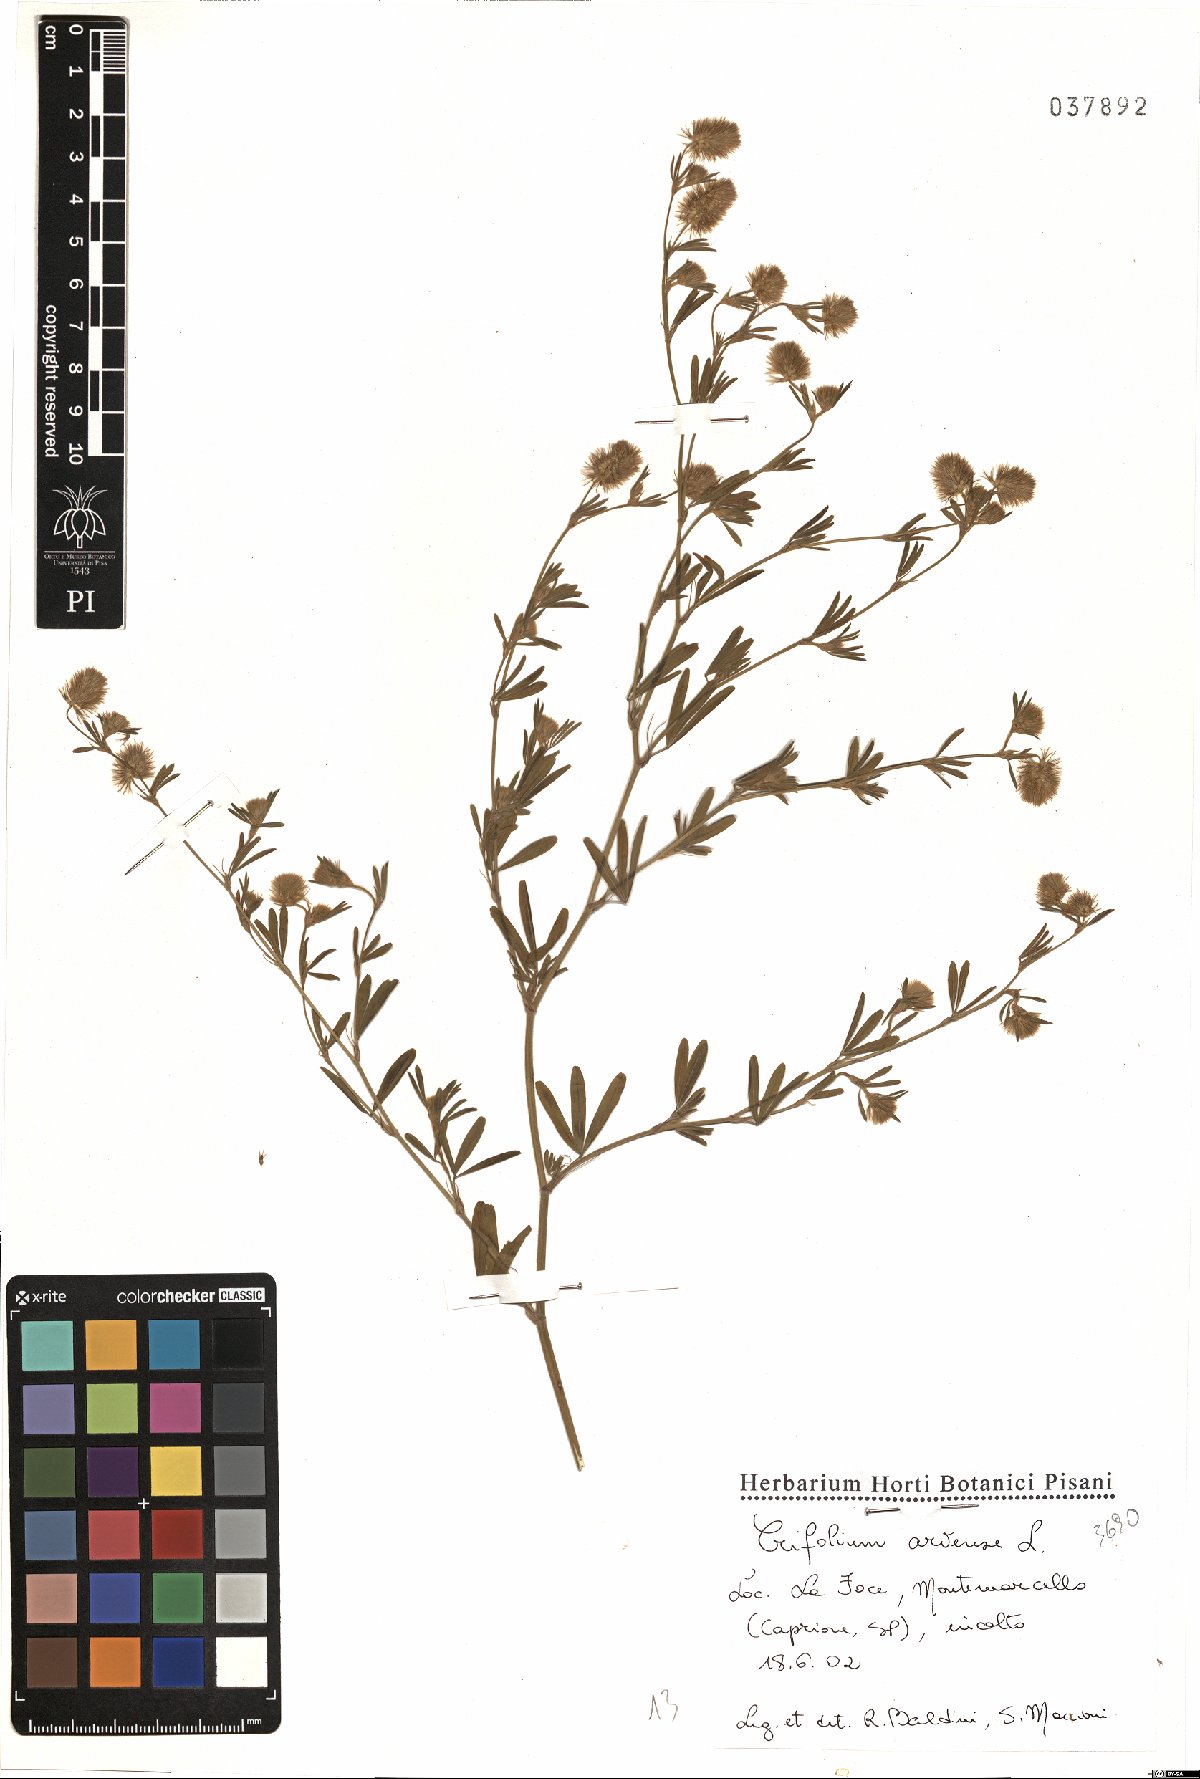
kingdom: Plantae
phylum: Tracheophyta
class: Magnoliopsida
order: Fabales
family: Fabaceae
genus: Trifolium
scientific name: Trifolium arvense
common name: Hare's-foot clover
